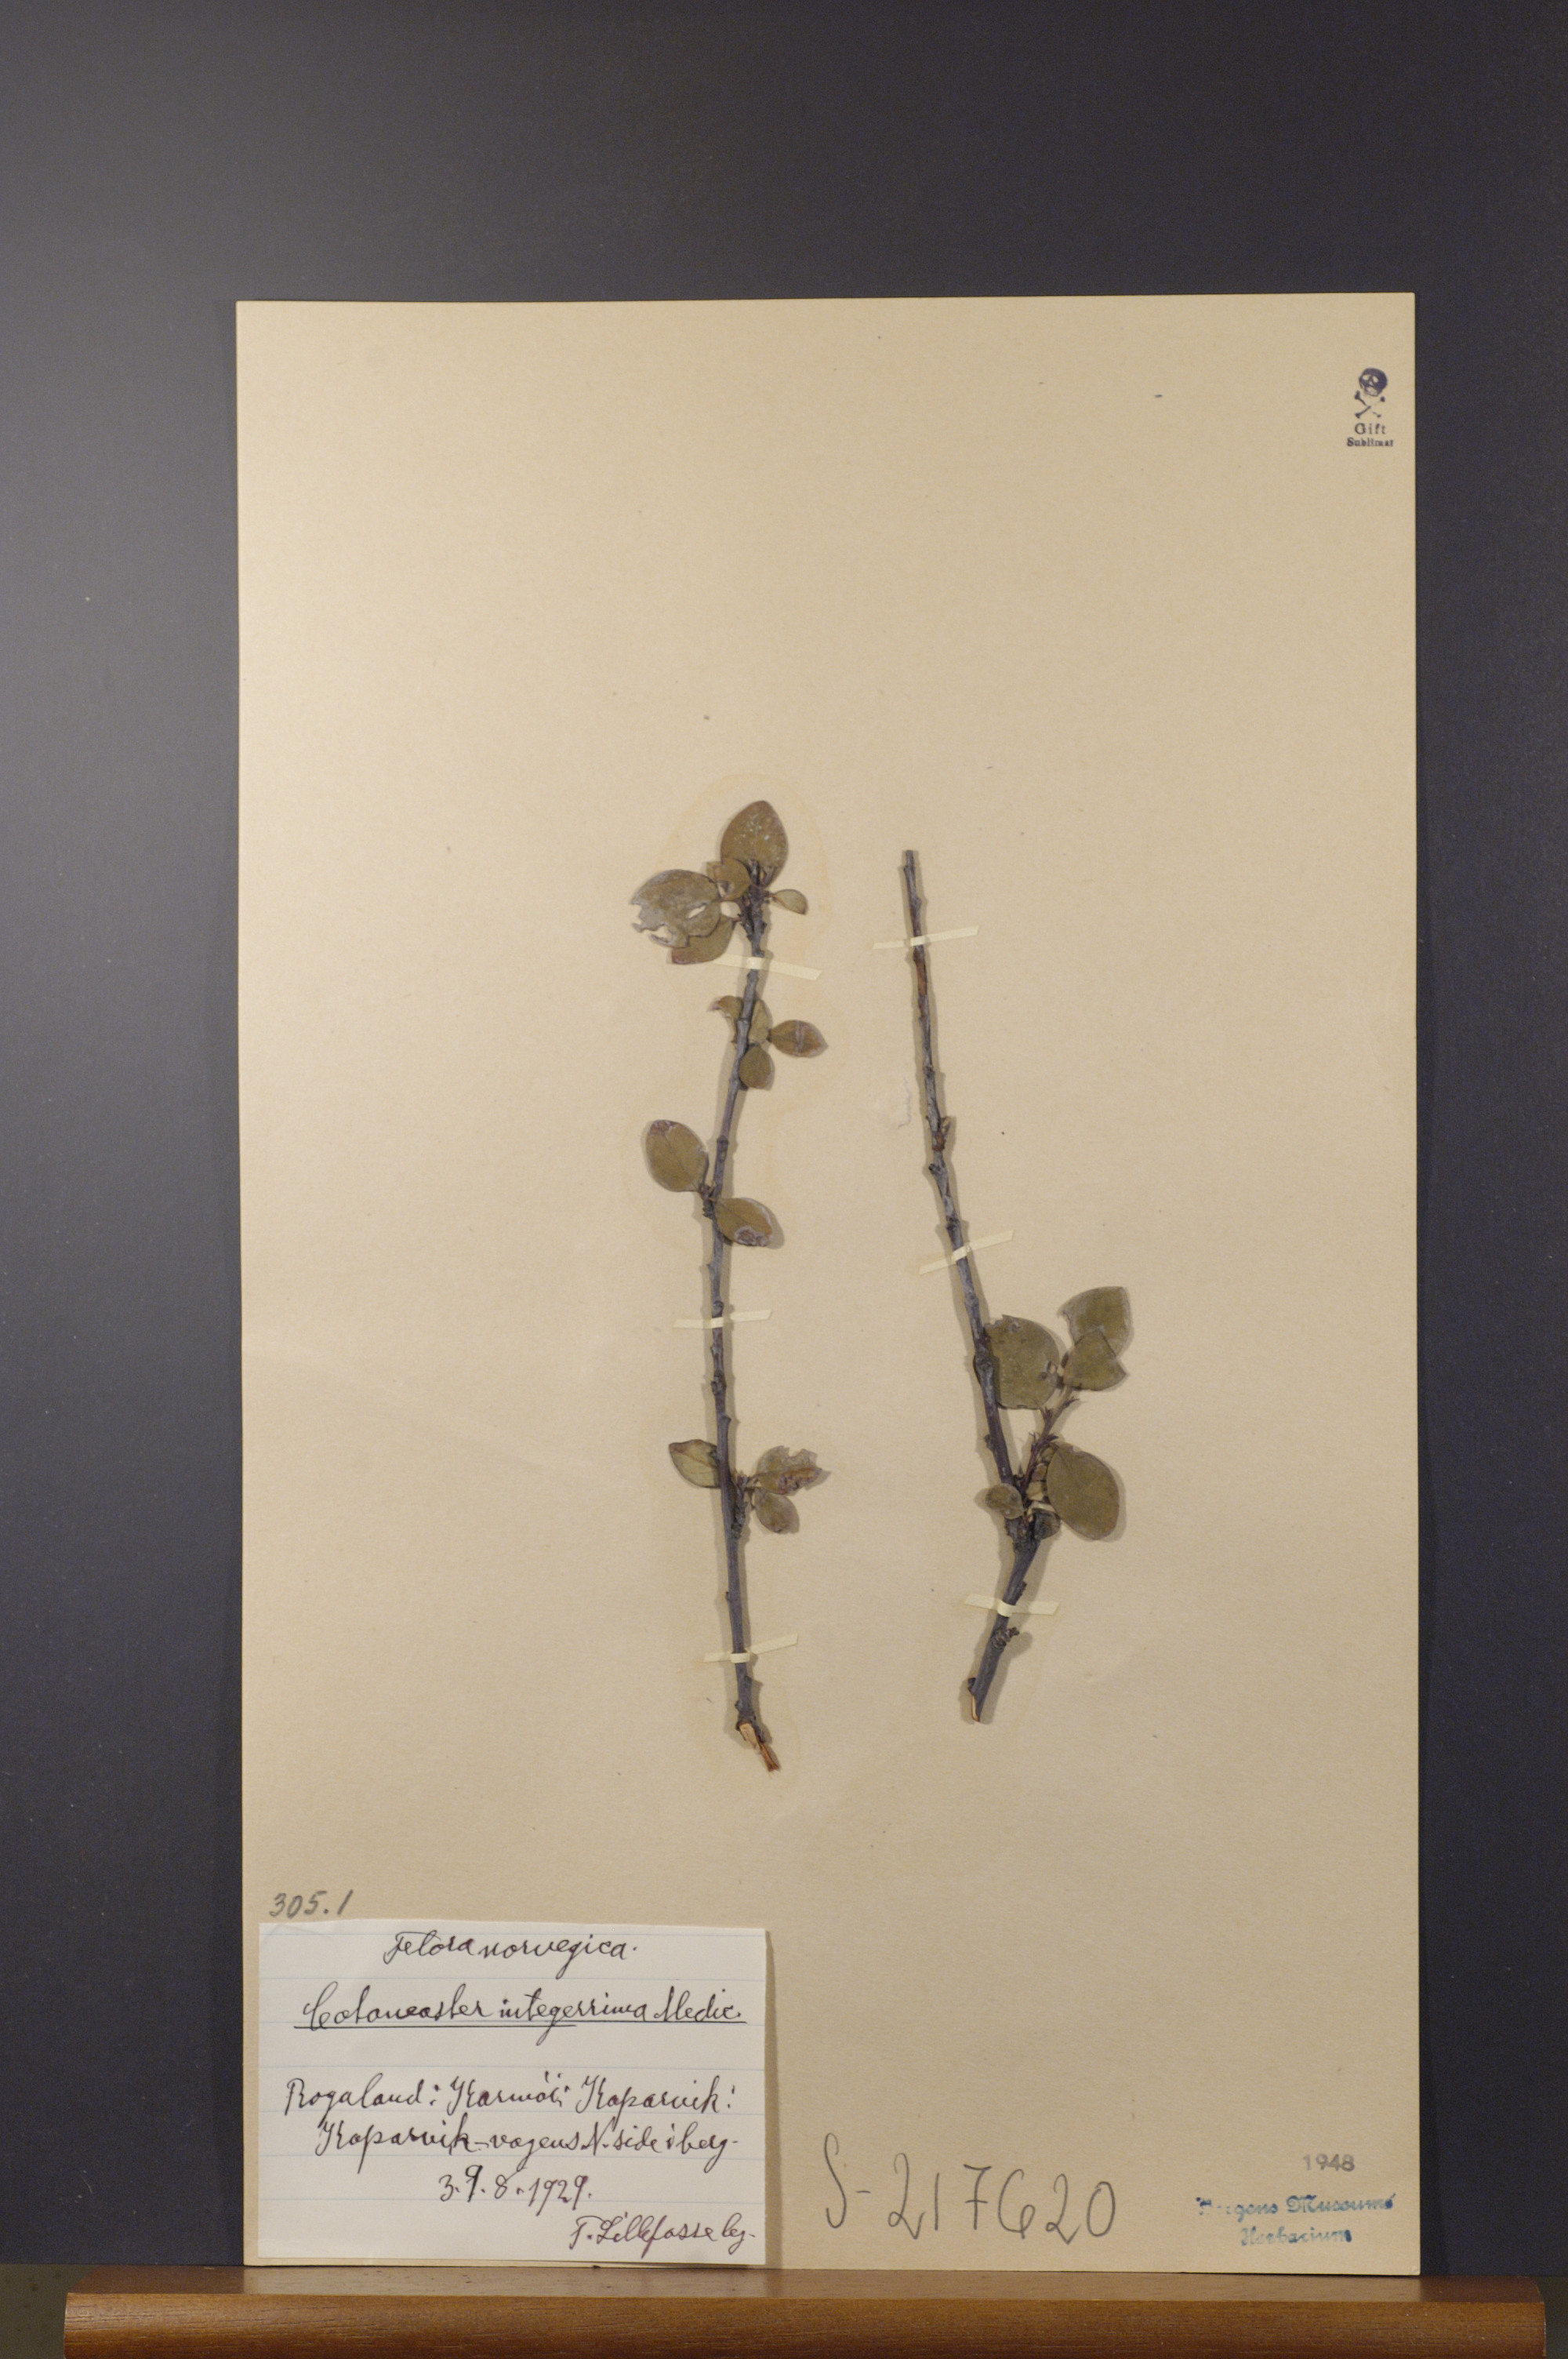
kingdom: Plantae
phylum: Tracheophyta
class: Magnoliopsida
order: Rosales
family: Rosaceae
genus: Cotoneaster
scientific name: Cotoneaster integerrimus
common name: Wild cotoneaster
